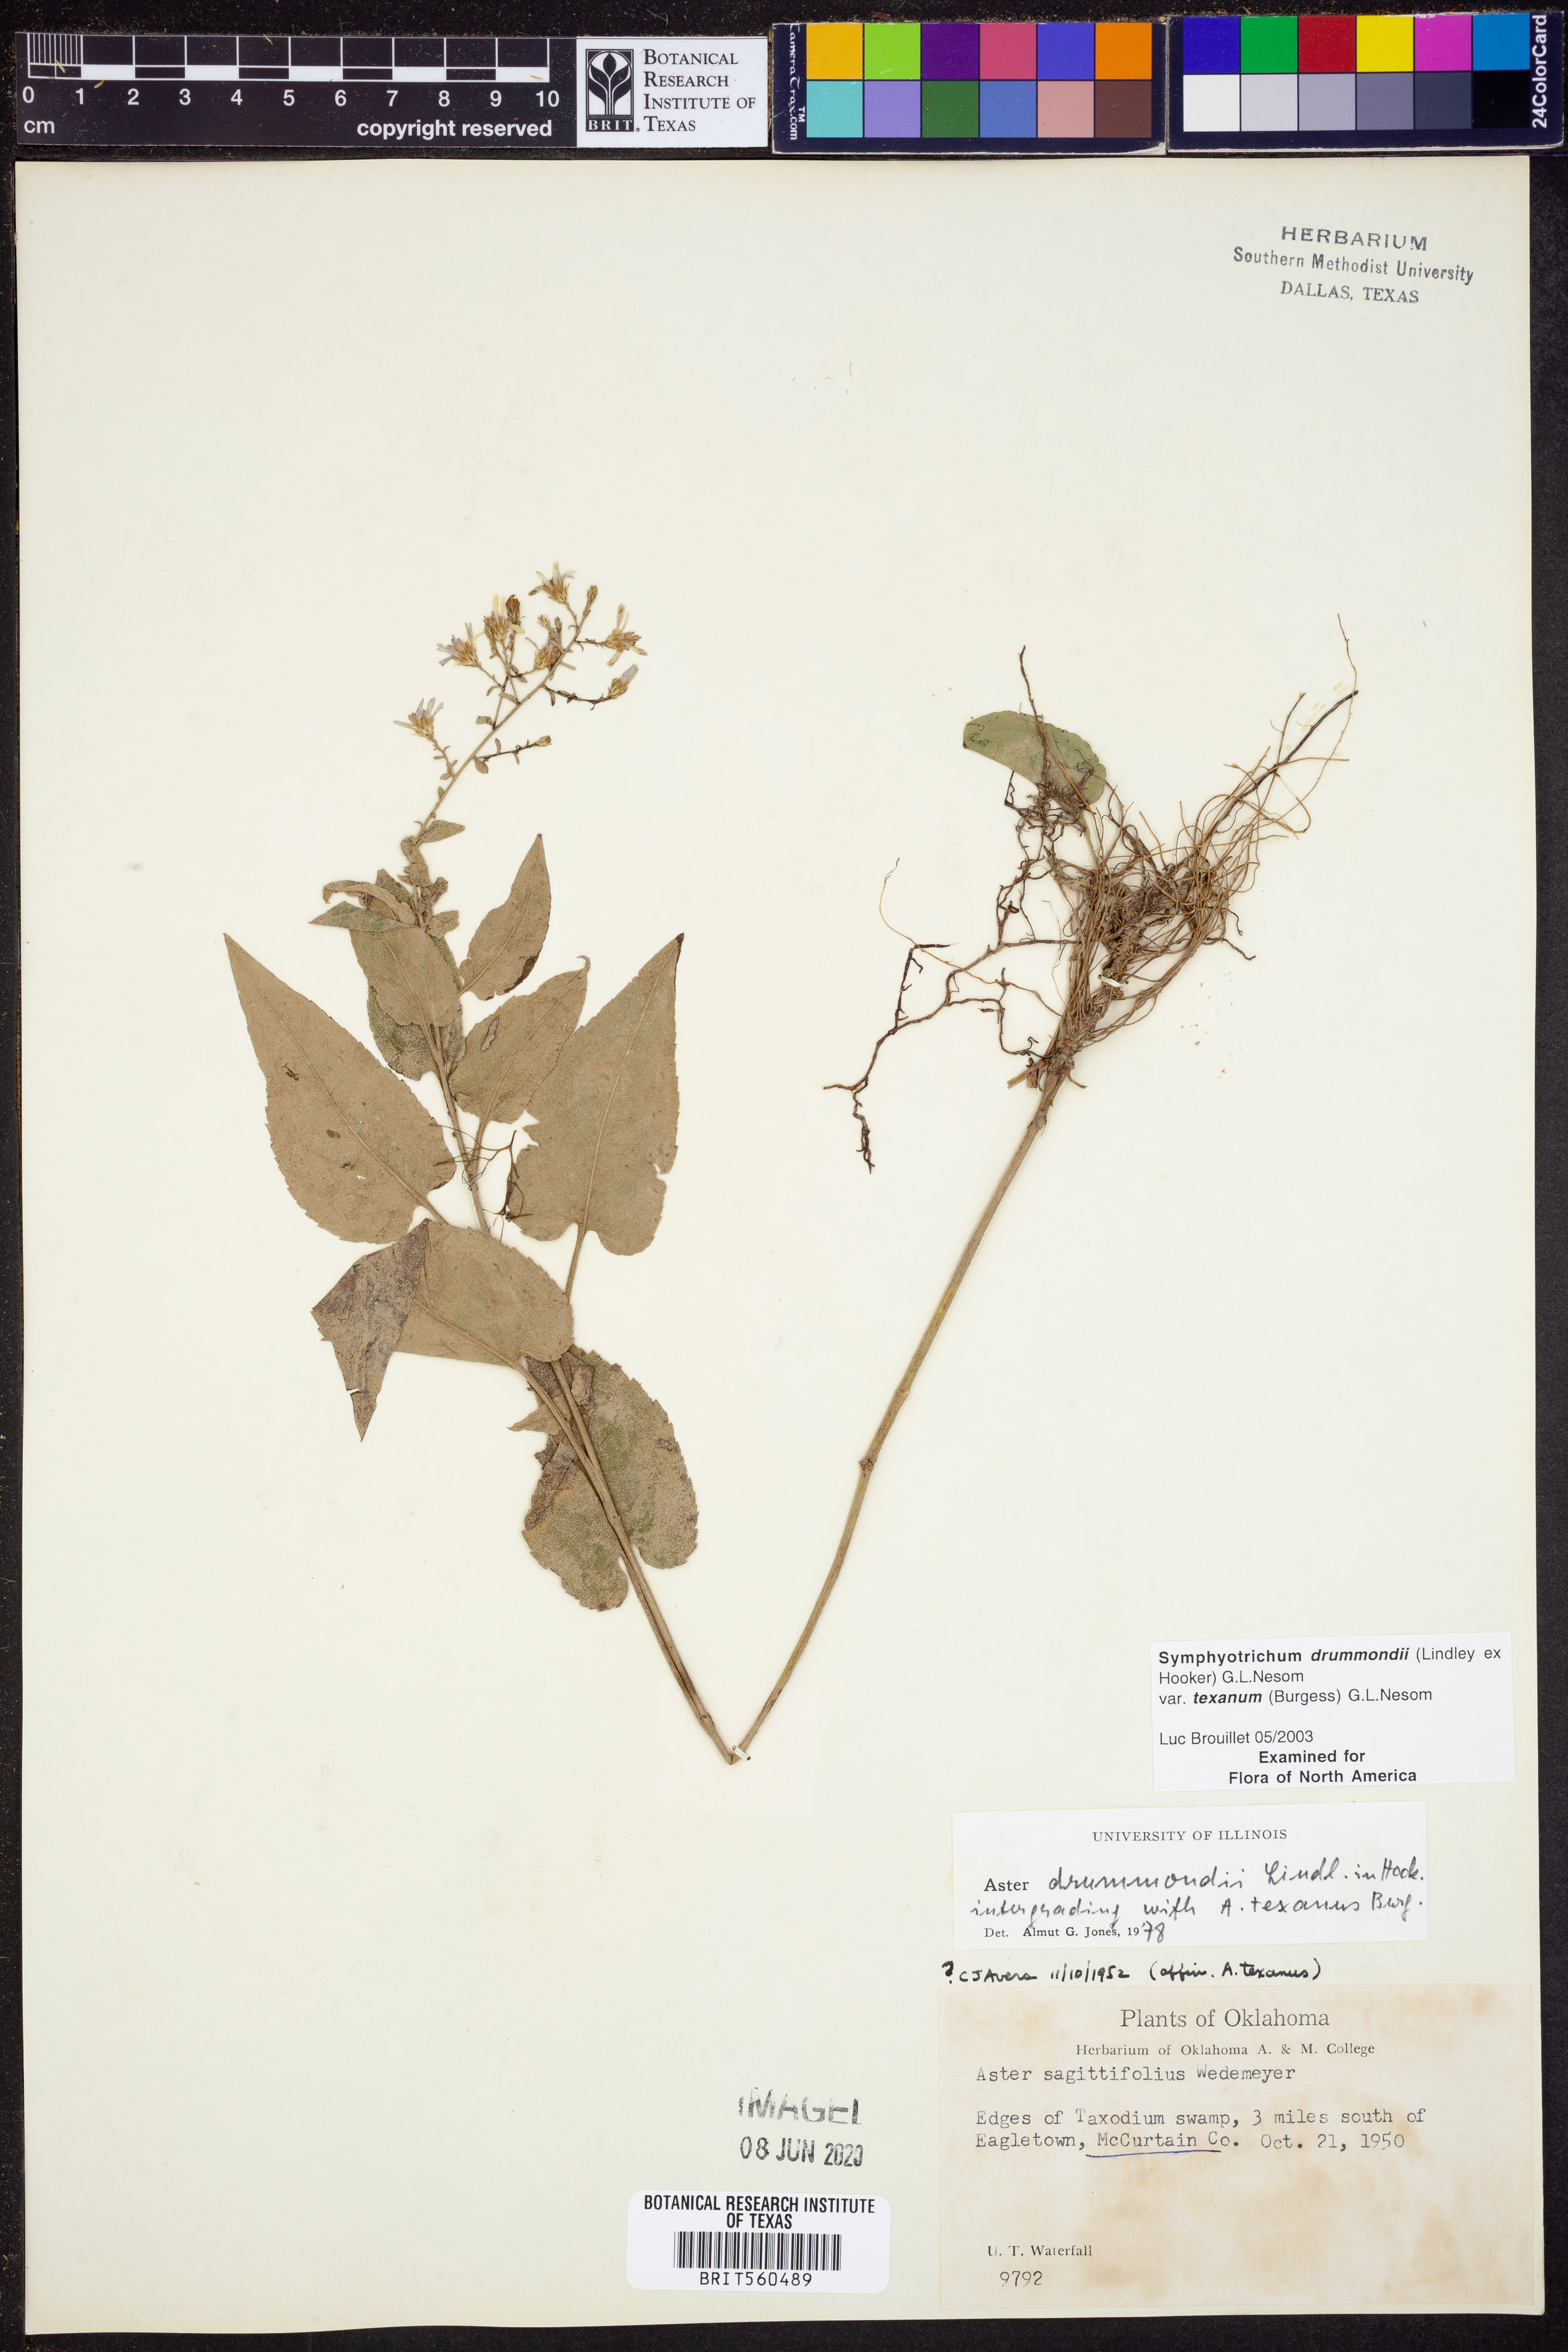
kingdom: Plantae
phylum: Tracheophyta
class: Magnoliopsida
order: Asterales
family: Asteraceae
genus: Symphyotrichum
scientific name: Symphyotrichum drummondii
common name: Drummond's aster
